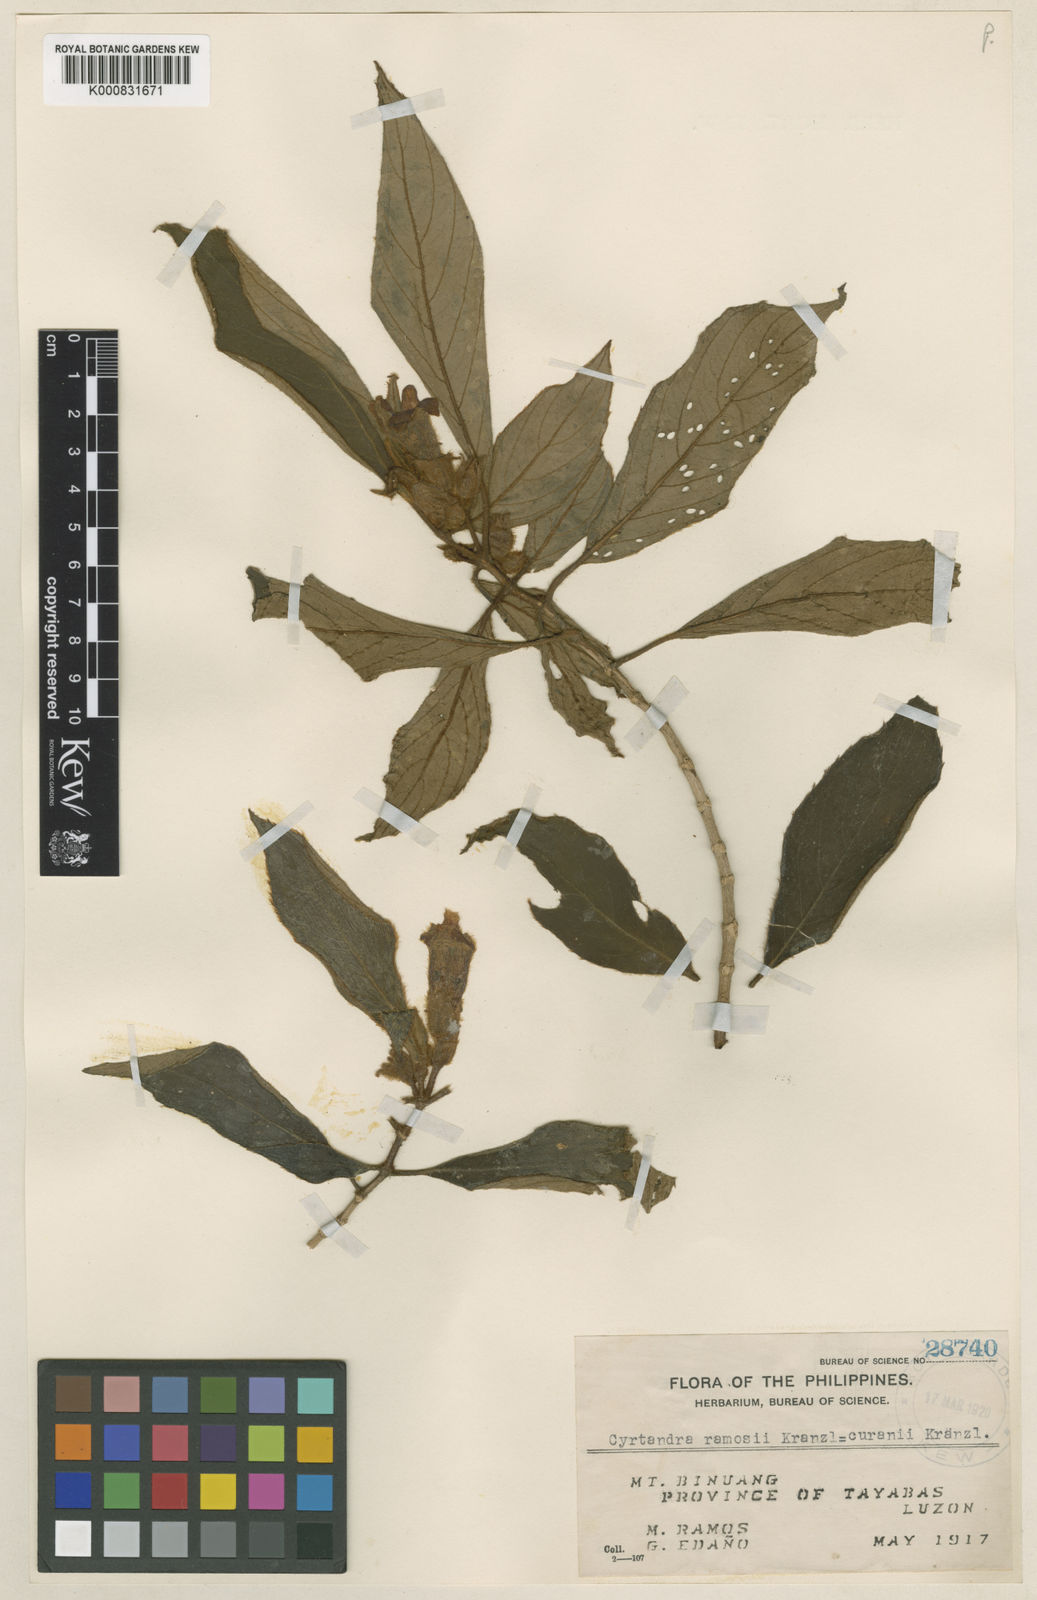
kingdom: Plantae
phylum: Tracheophyta
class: Magnoliopsida
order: Lamiales
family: Gesneriaceae
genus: Cyrtandra
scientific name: Cyrtandra lobbii
